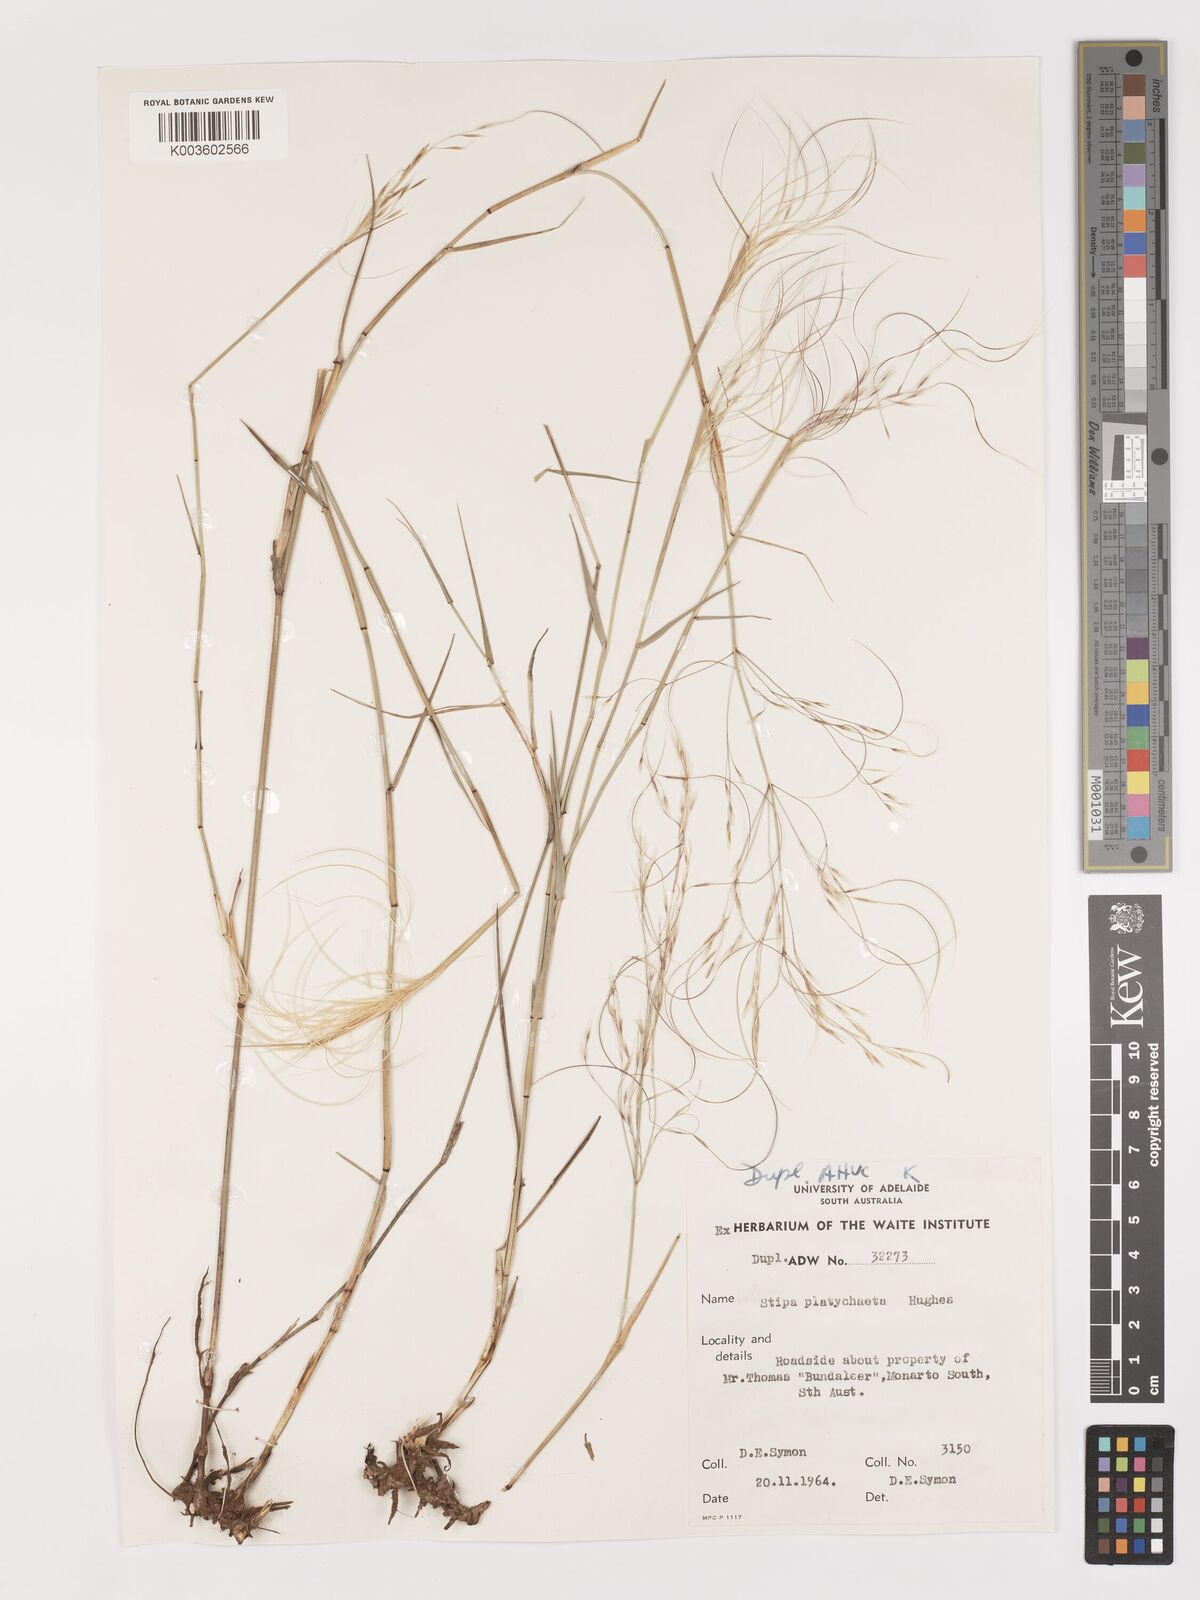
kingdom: Plantae
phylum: Tracheophyta
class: Liliopsida
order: Poales
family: Poaceae
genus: Austrostipa
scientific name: Austrostipa platychaeta
